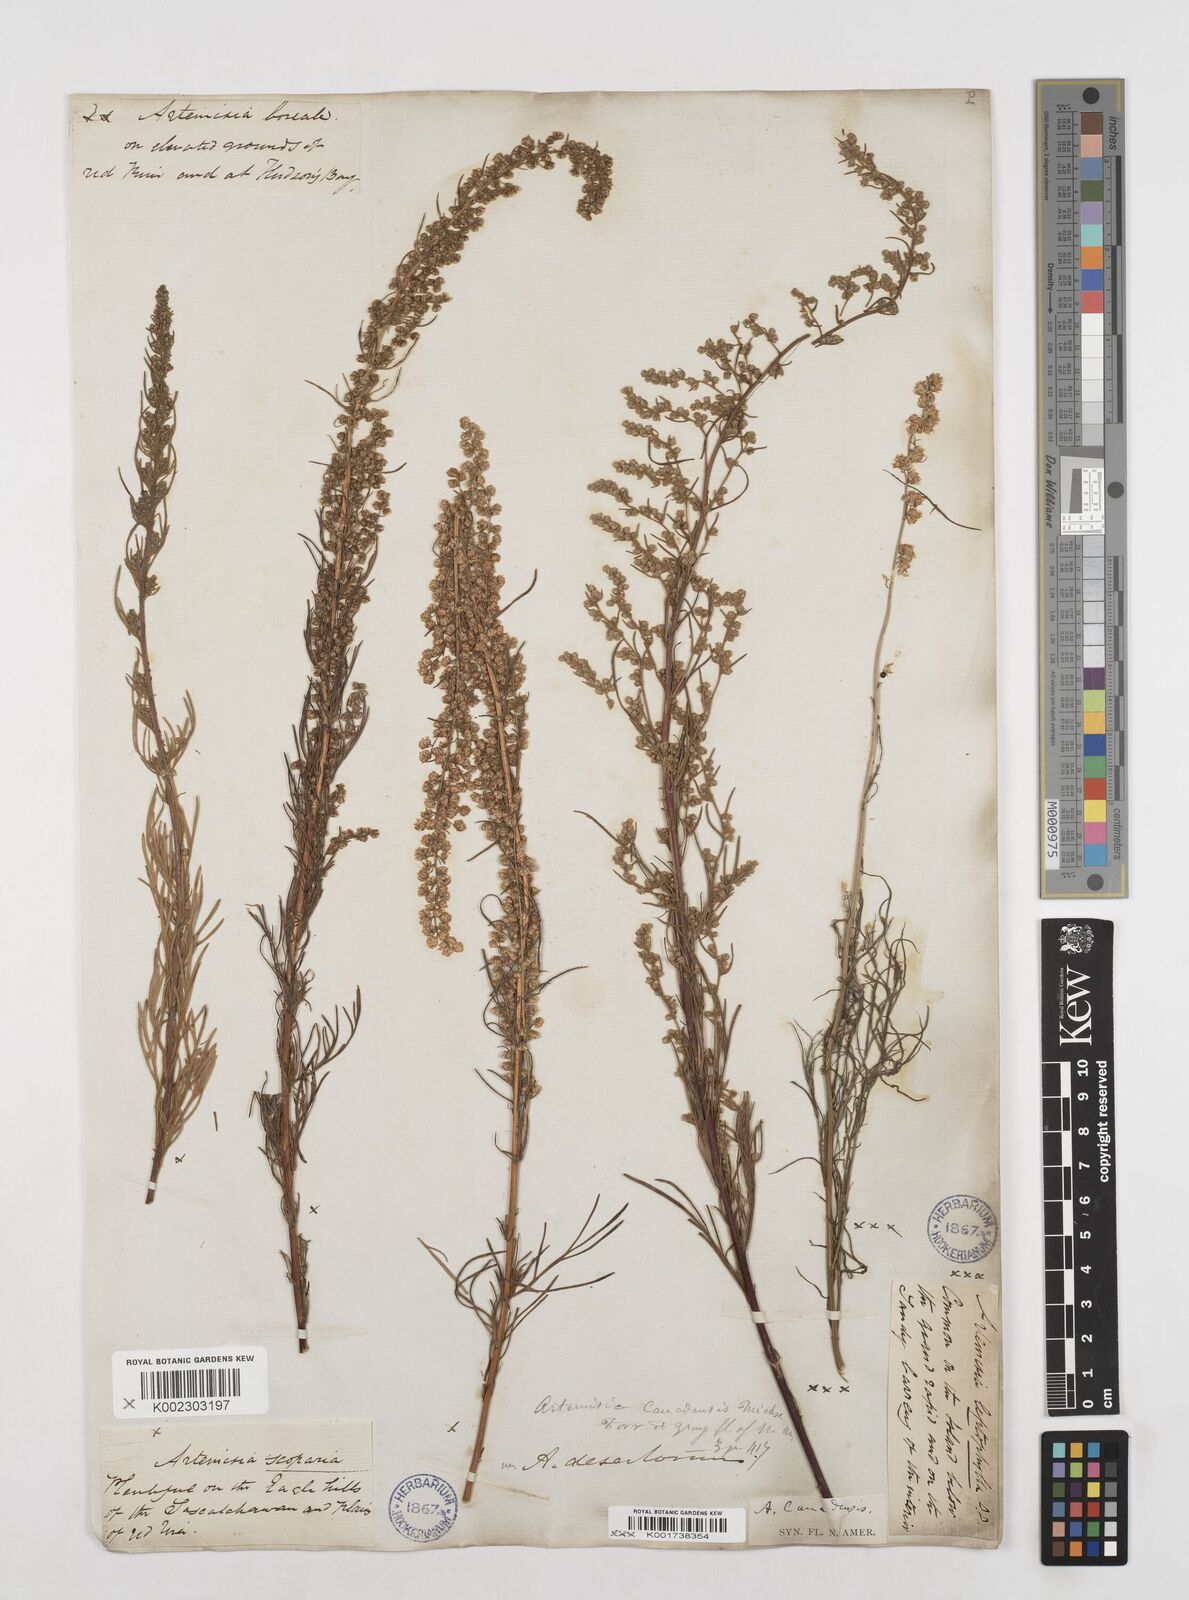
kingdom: Plantae
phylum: Tracheophyta
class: Magnoliopsida
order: Asterales
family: Asteraceae
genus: Artemisia
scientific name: Artemisia campestris
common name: Field wormwood
